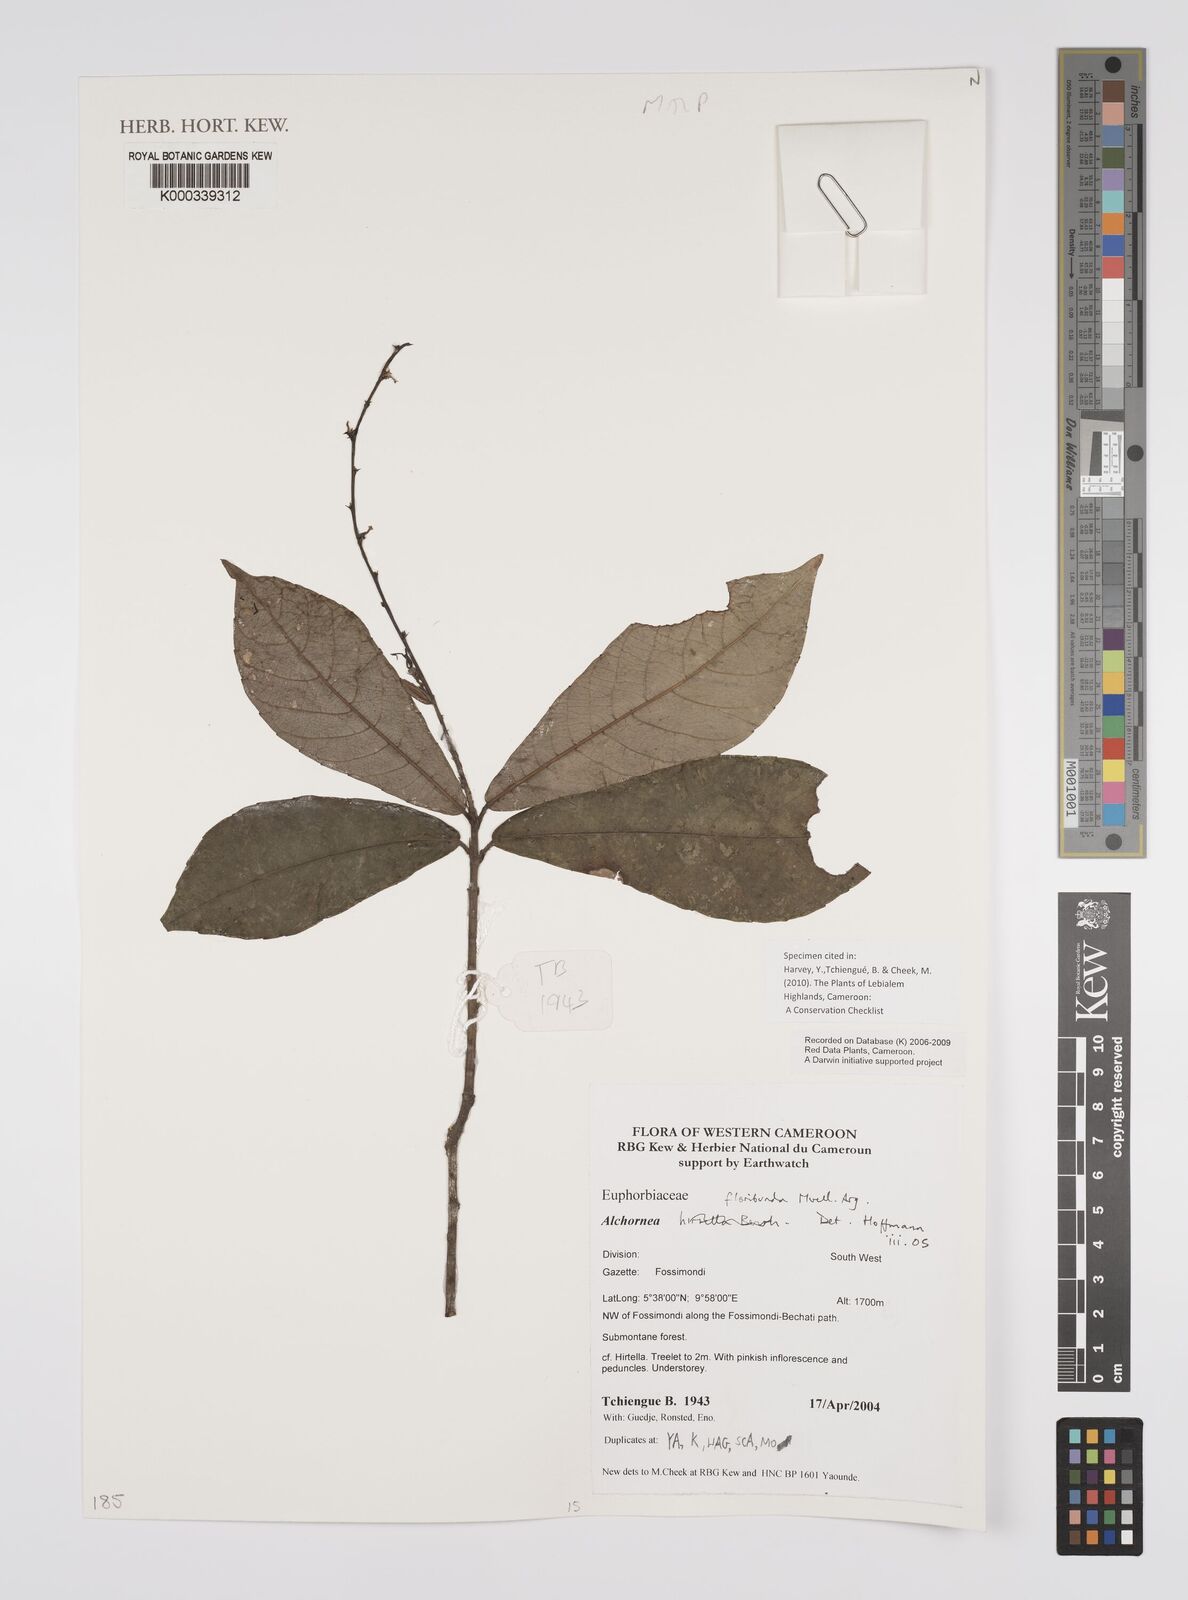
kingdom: Plantae
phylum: Tracheophyta
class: Magnoliopsida
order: Malpighiales
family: Euphorbiaceae
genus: Alchornea
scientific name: Alchornea
